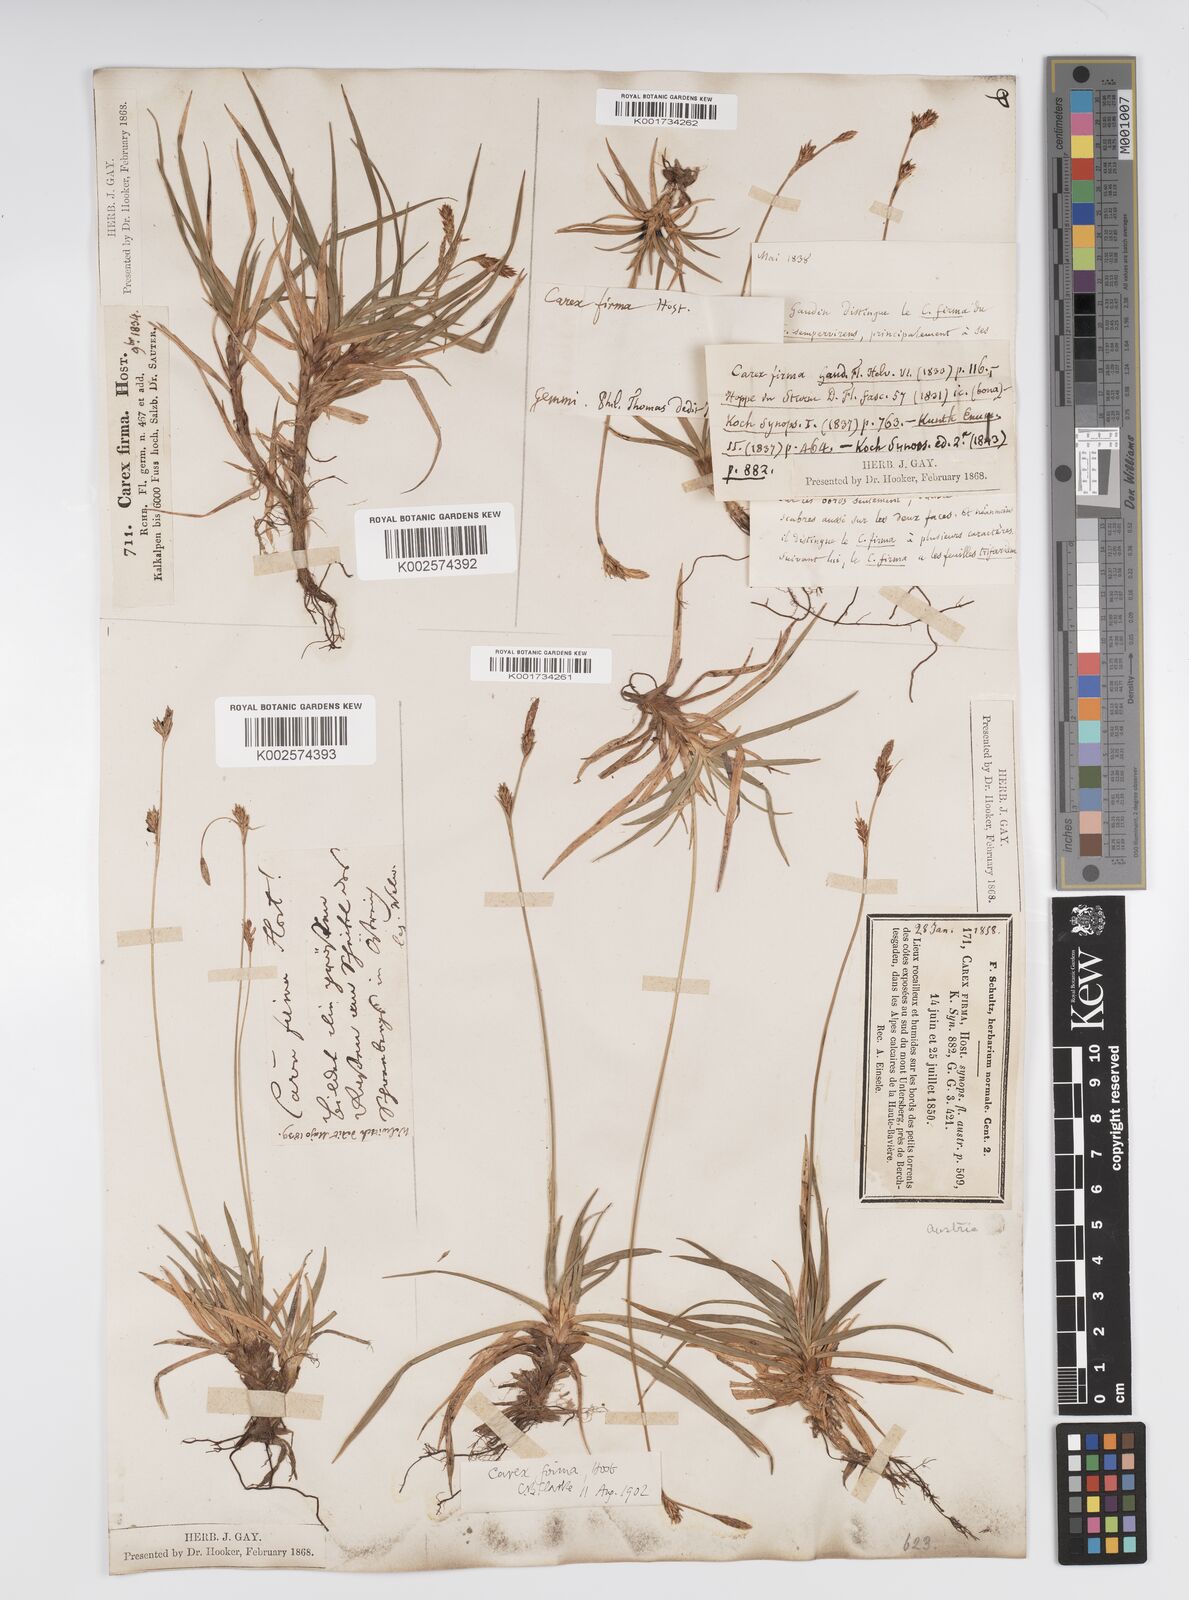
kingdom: Plantae
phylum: Tracheophyta
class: Liliopsida
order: Poales
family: Cyperaceae
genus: Carex
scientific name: Carex firma
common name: Dwarf pillow sedge
